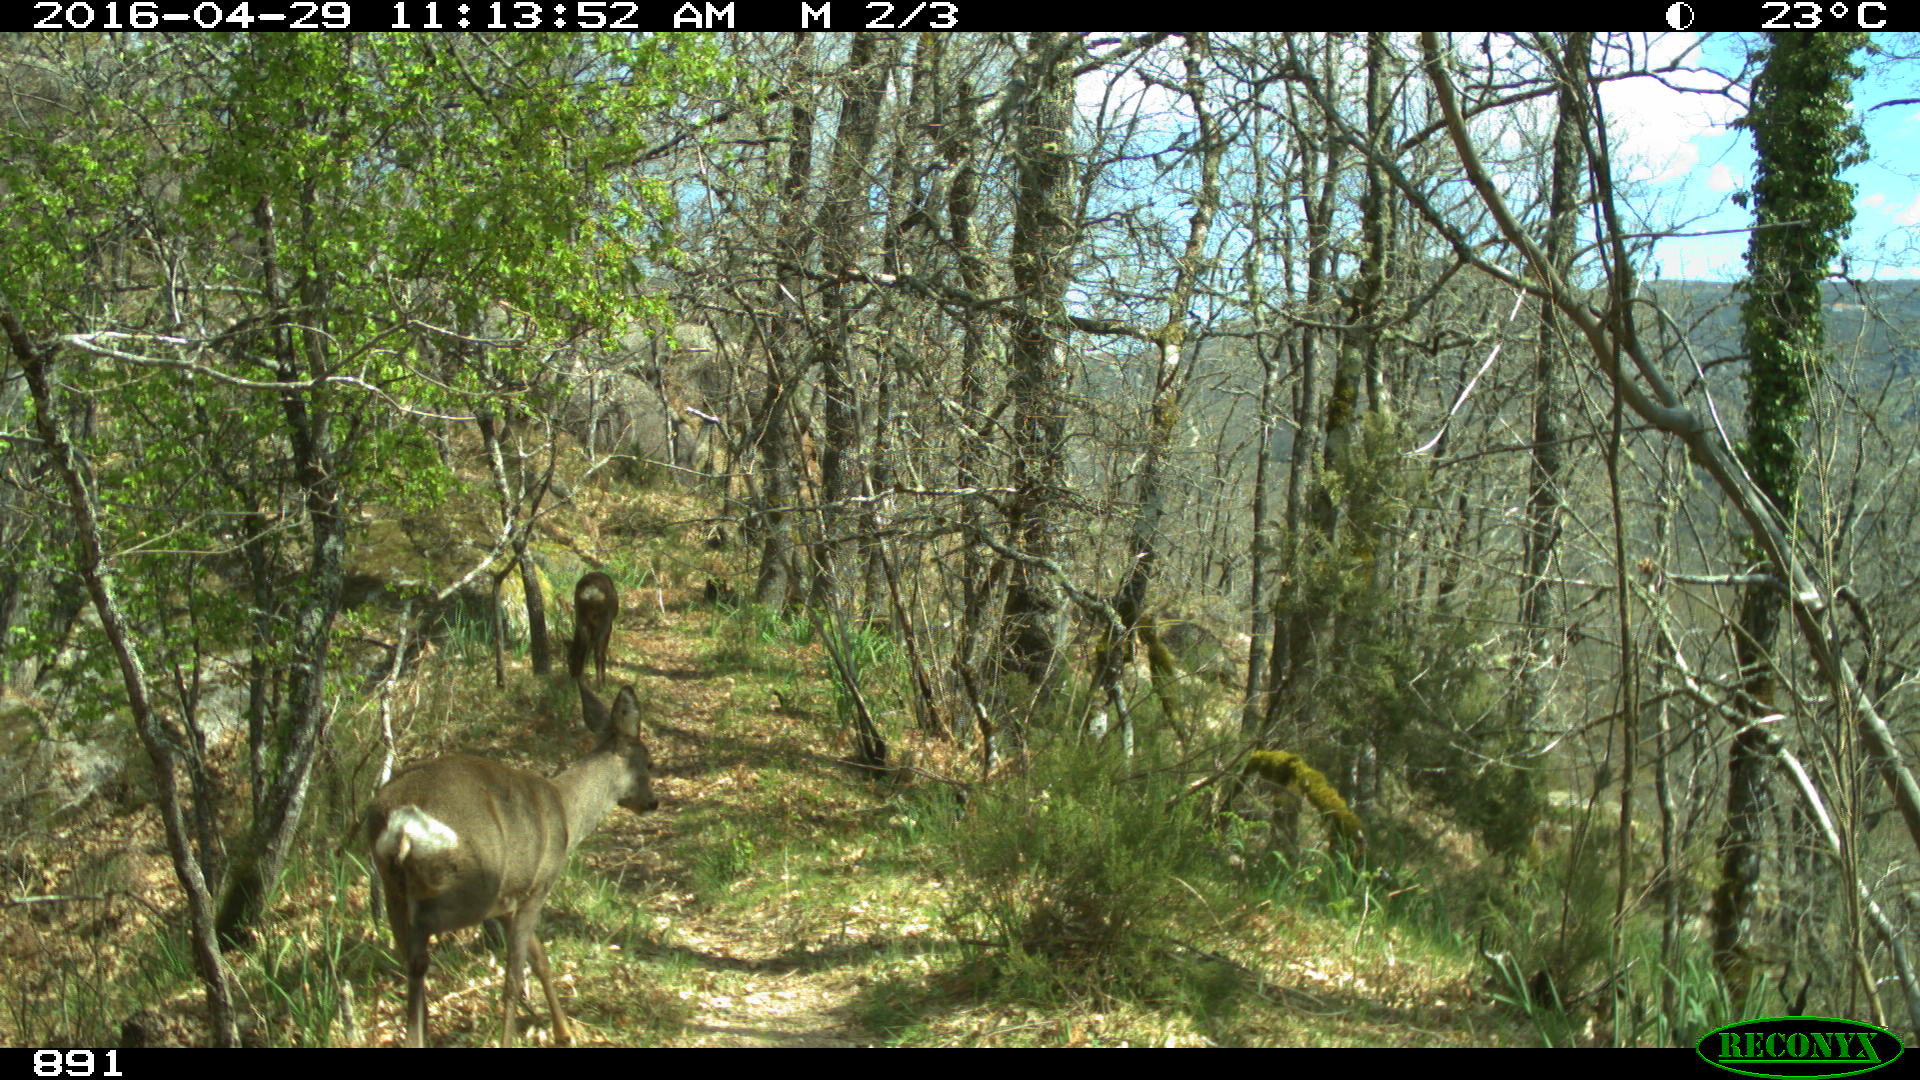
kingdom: Animalia
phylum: Chordata
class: Mammalia
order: Artiodactyla
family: Cervidae
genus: Capreolus
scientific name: Capreolus capreolus
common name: Western roe deer
